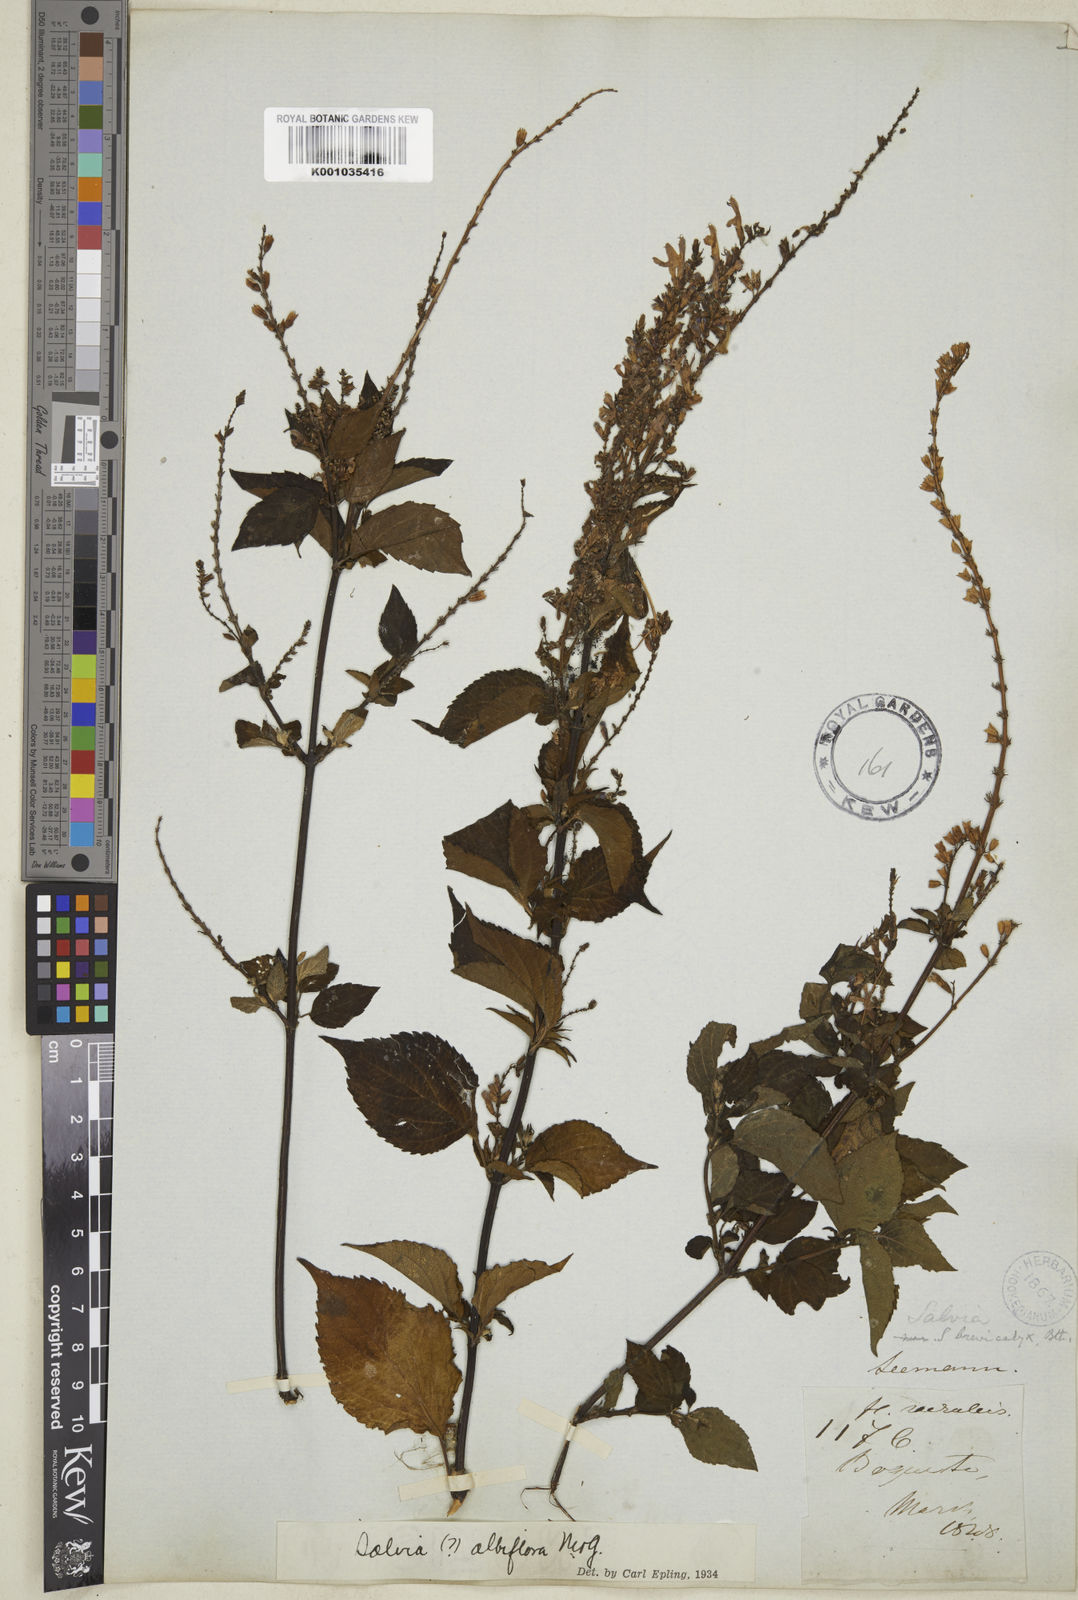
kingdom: Plantae
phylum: Tracheophyta
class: Magnoliopsida
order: Lamiales
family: Lamiaceae
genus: Salvia
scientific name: Salvia albiflora
